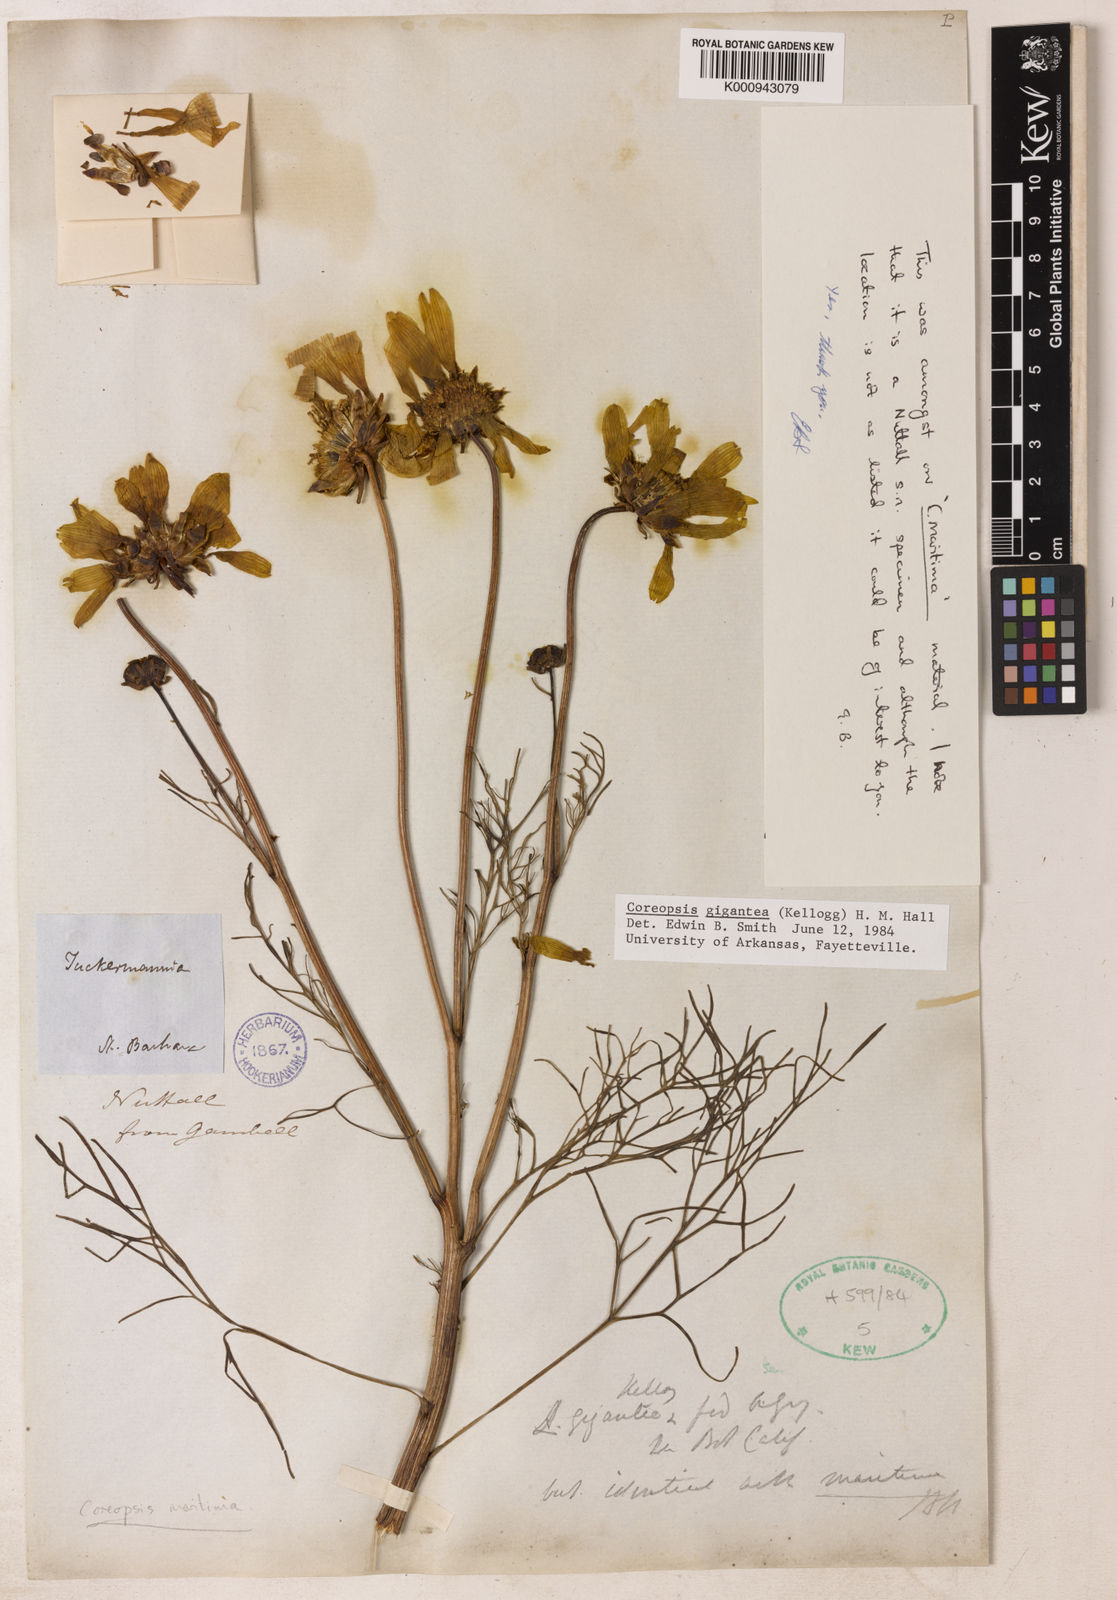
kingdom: Plantae
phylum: Tracheophyta
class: Magnoliopsida
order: Asterales
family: Asteraceae
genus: Coreopsis
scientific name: Coreopsis gigantea
